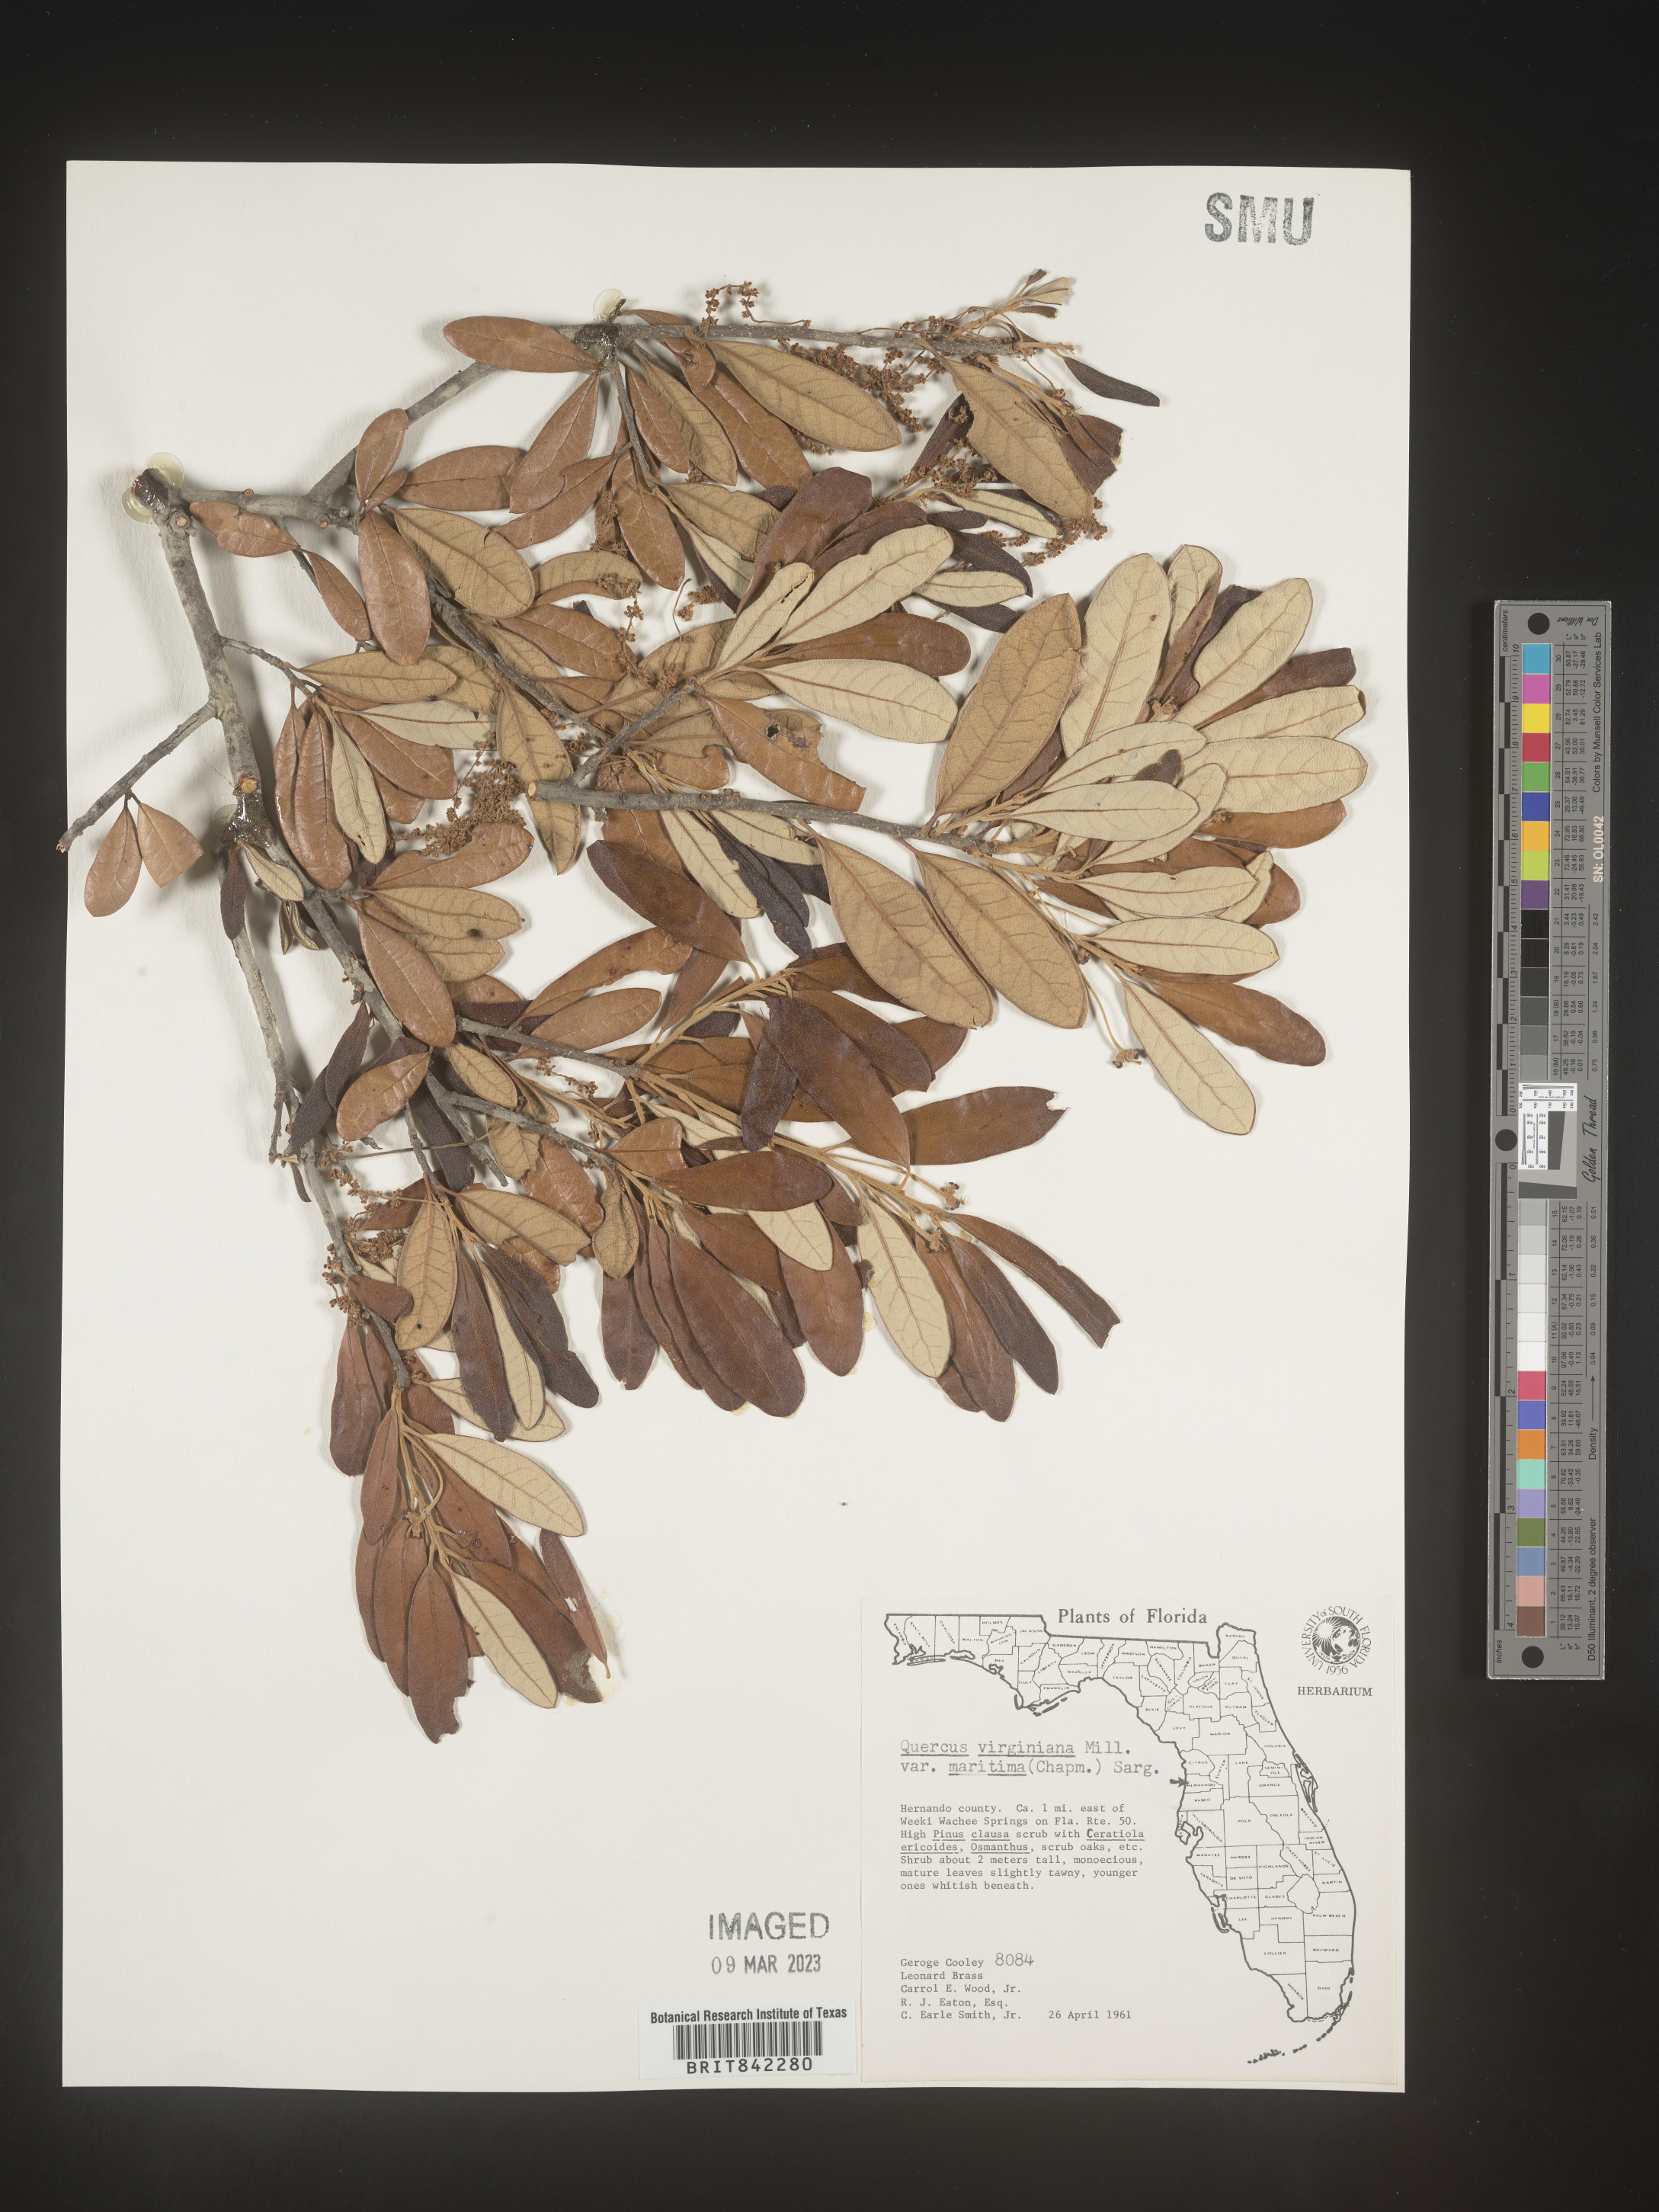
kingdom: Plantae
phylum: Tracheophyta
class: Magnoliopsida
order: Fagales
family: Fagaceae
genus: Quercus
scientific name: Quercus virginiana
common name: Southern live oak
